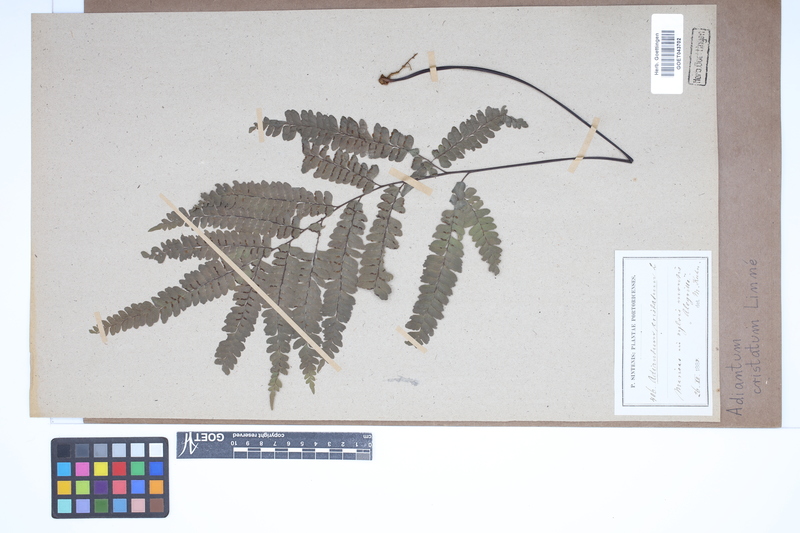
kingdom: Plantae
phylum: Tracheophyta
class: Polypodiopsida
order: Polypodiales
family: Pteridaceae
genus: Adiantum
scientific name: Adiantum pyramidale
